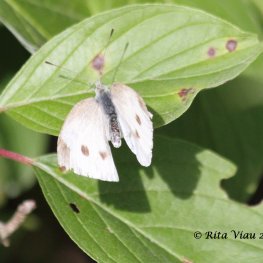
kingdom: Animalia
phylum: Arthropoda
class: Insecta
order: Lepidoptera
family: Pieridae
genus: Pieris
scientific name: Pieris rapae
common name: Cabbage White
